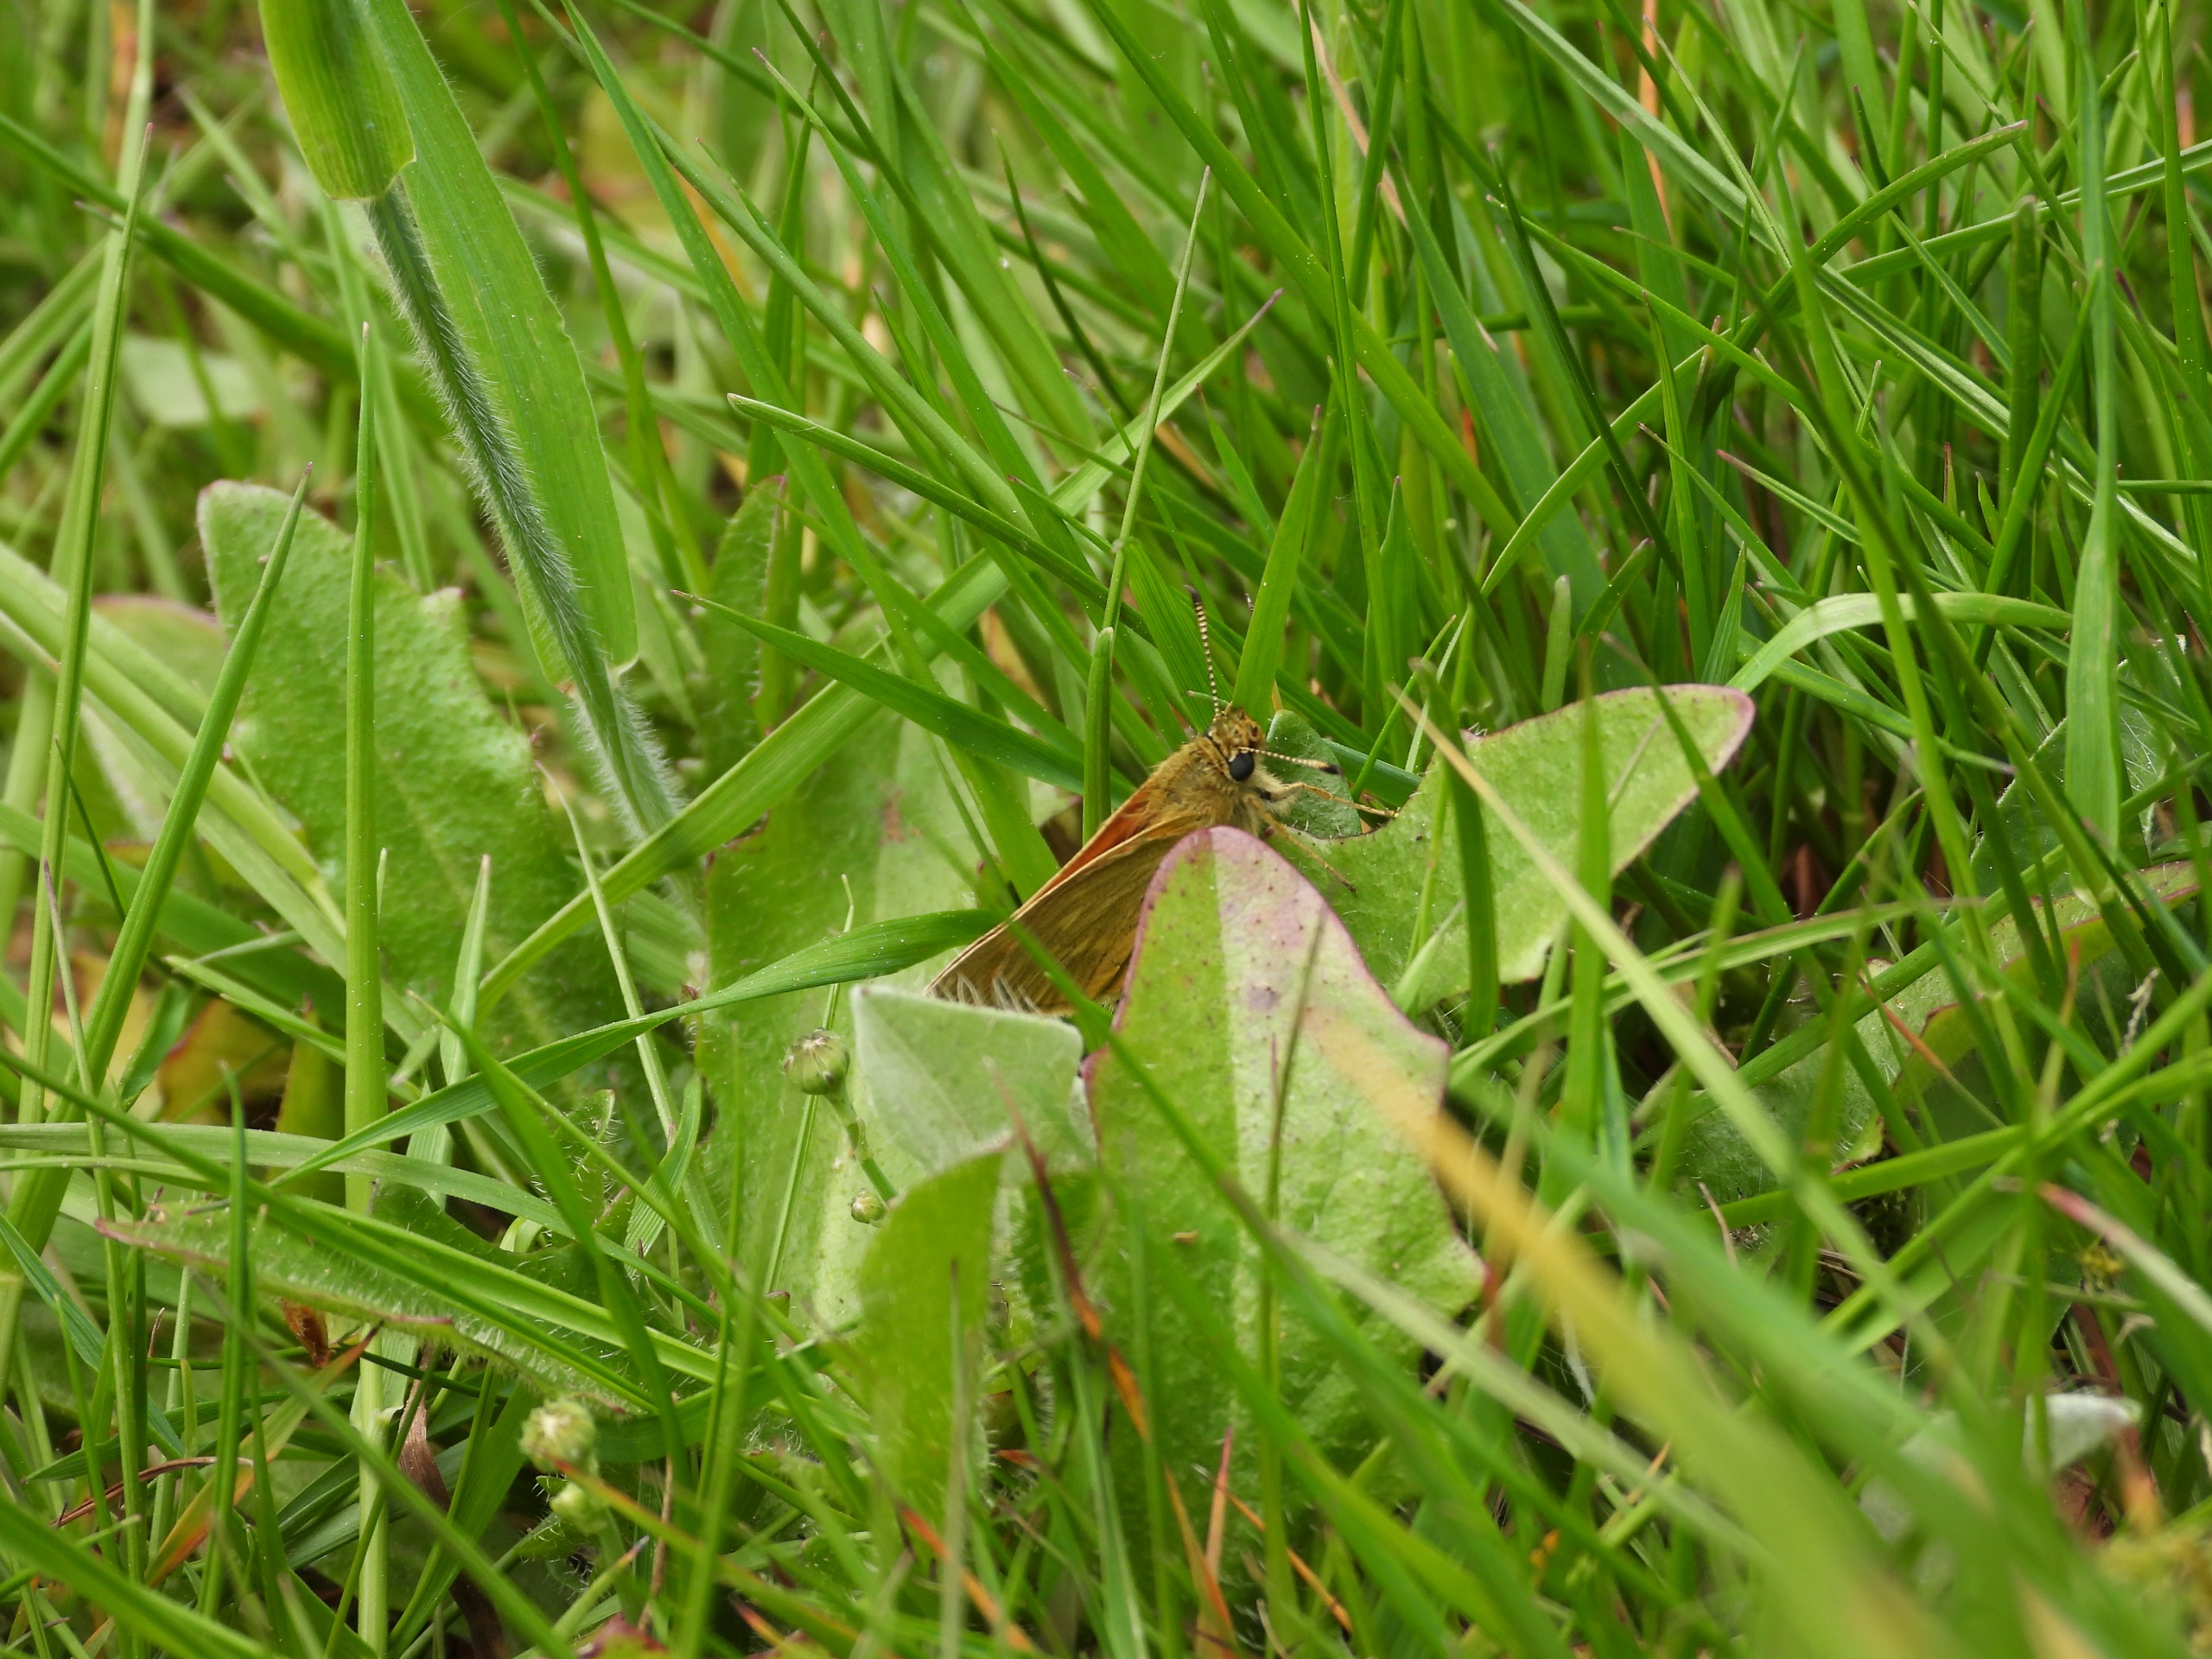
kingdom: Animalia
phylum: Arthropoda
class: Insecta
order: Lepidoptera
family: Hesperiidae
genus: Ochlodes
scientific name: Ochlodes venata
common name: Stor bredpande
